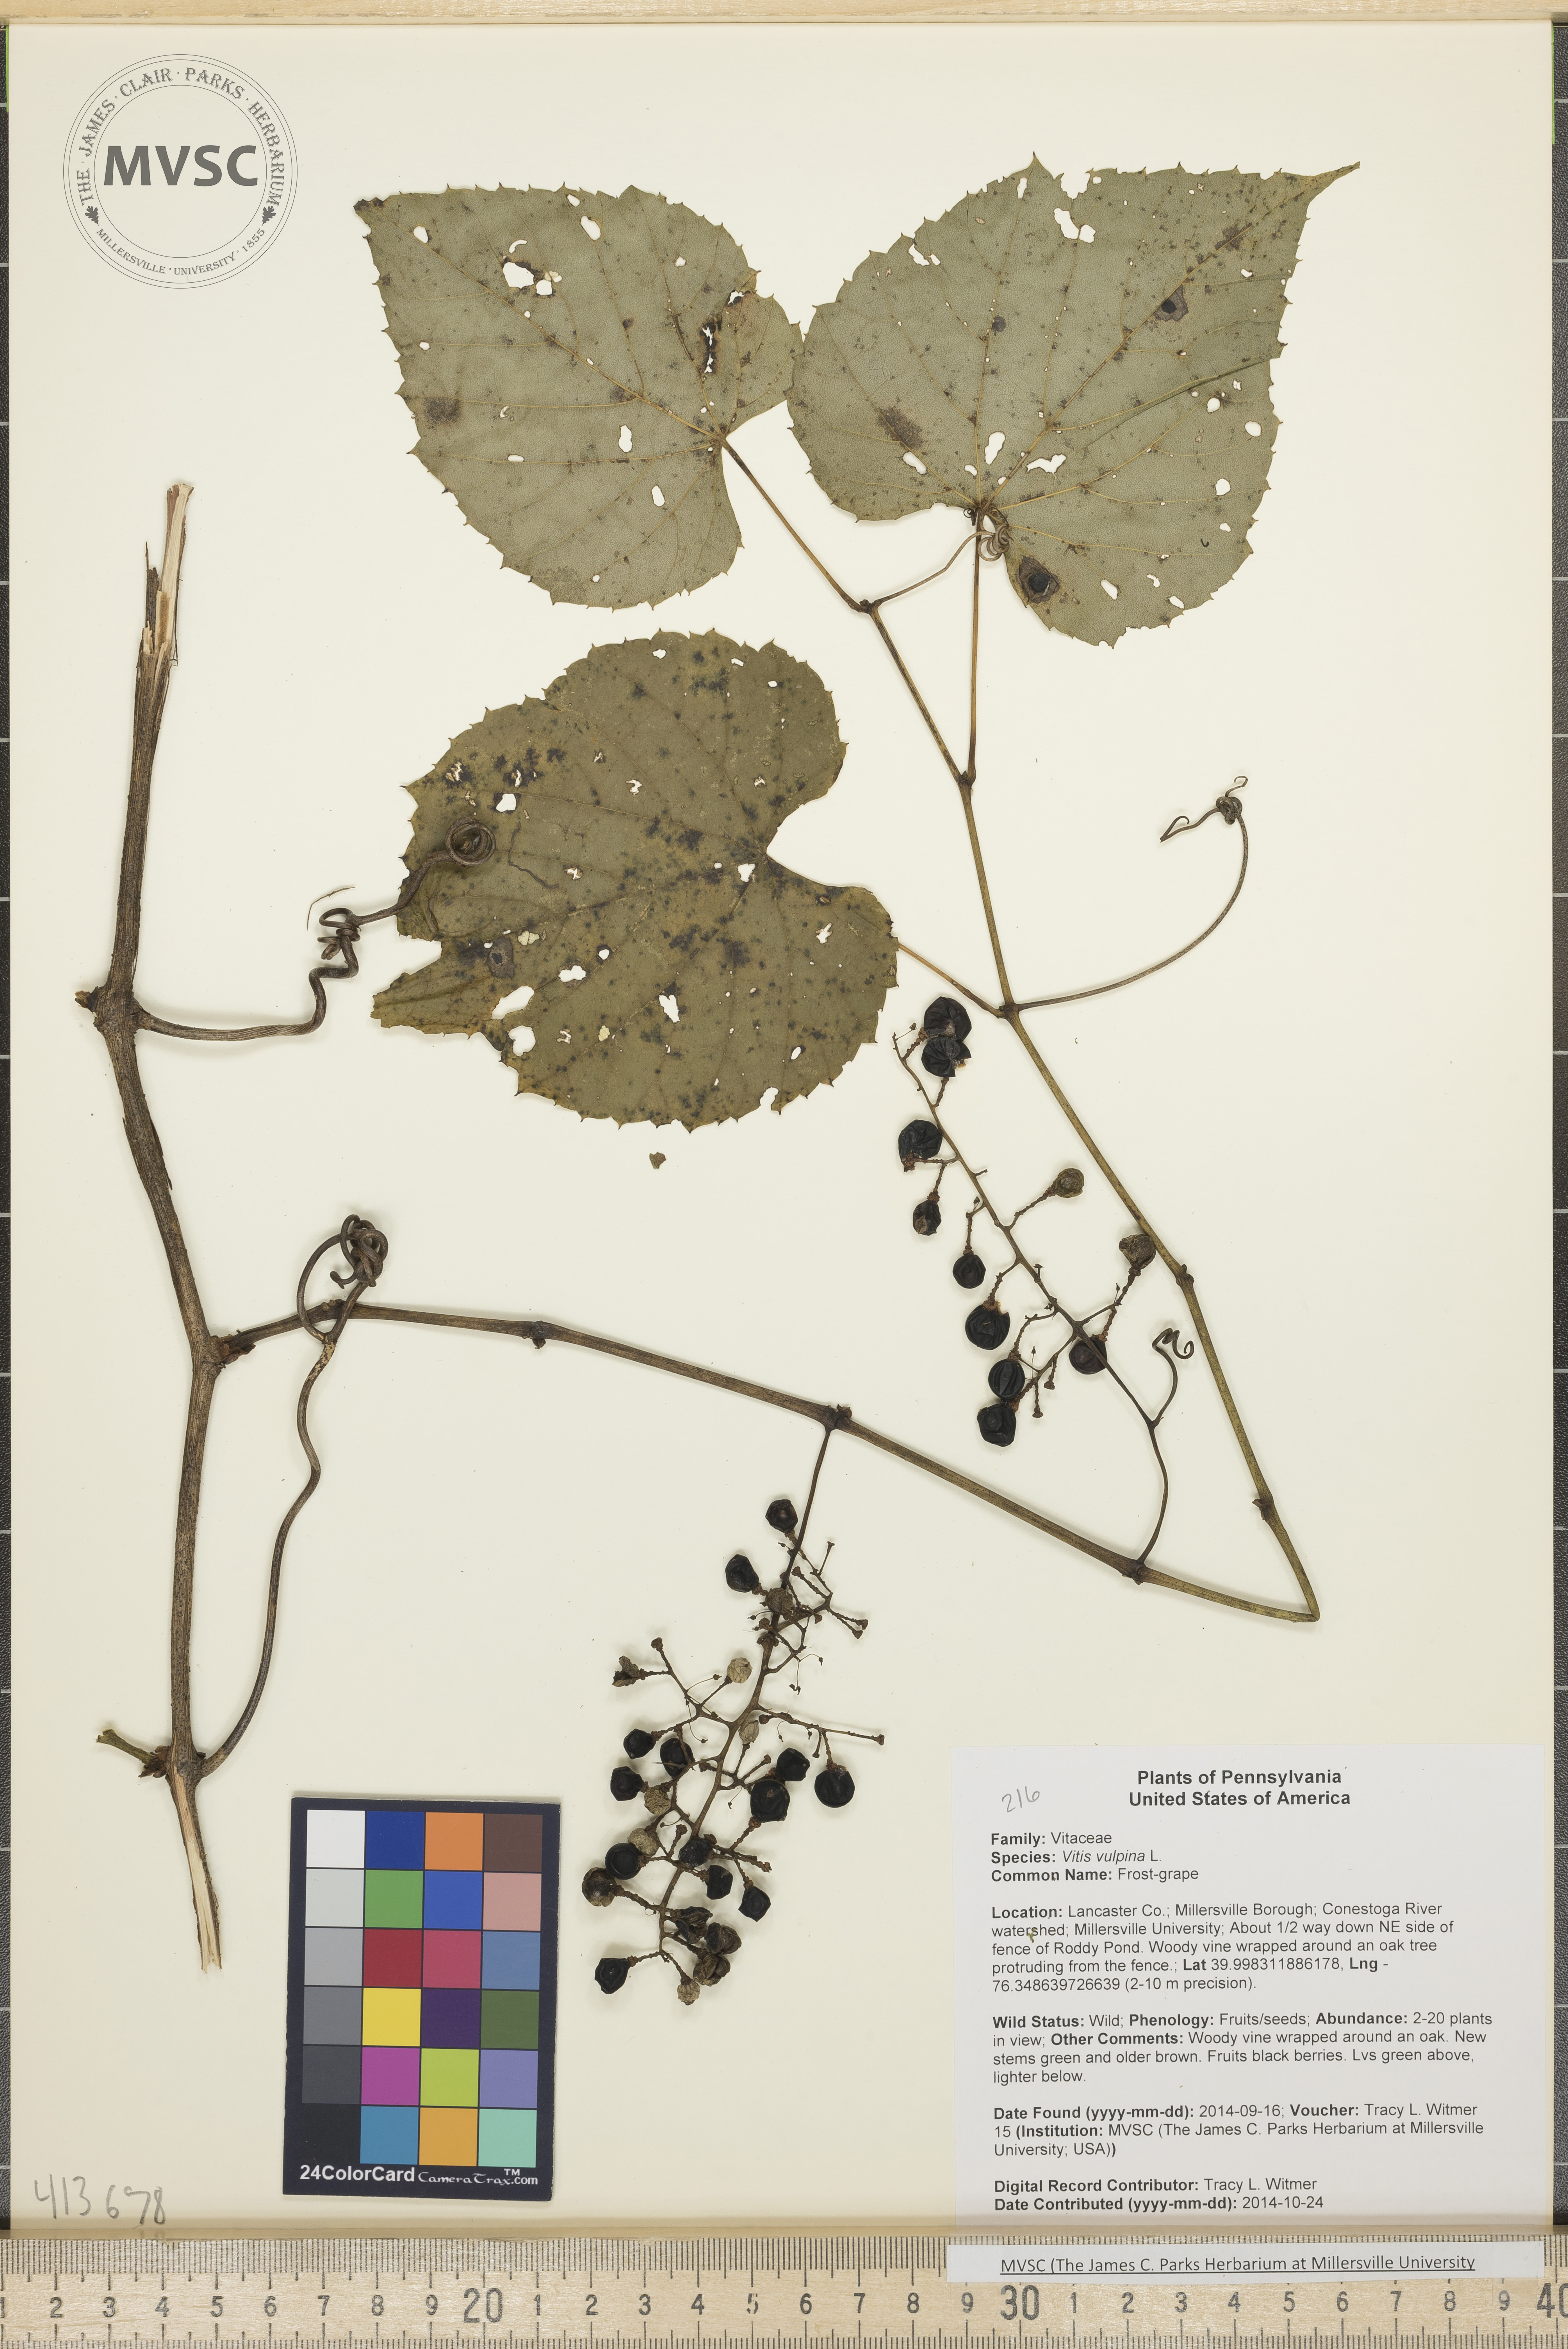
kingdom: Plantae
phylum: Tracheophyta
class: Magnoliopsida
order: Vitales
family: Vitaceae
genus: Vitis
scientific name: Vitis vulpina
